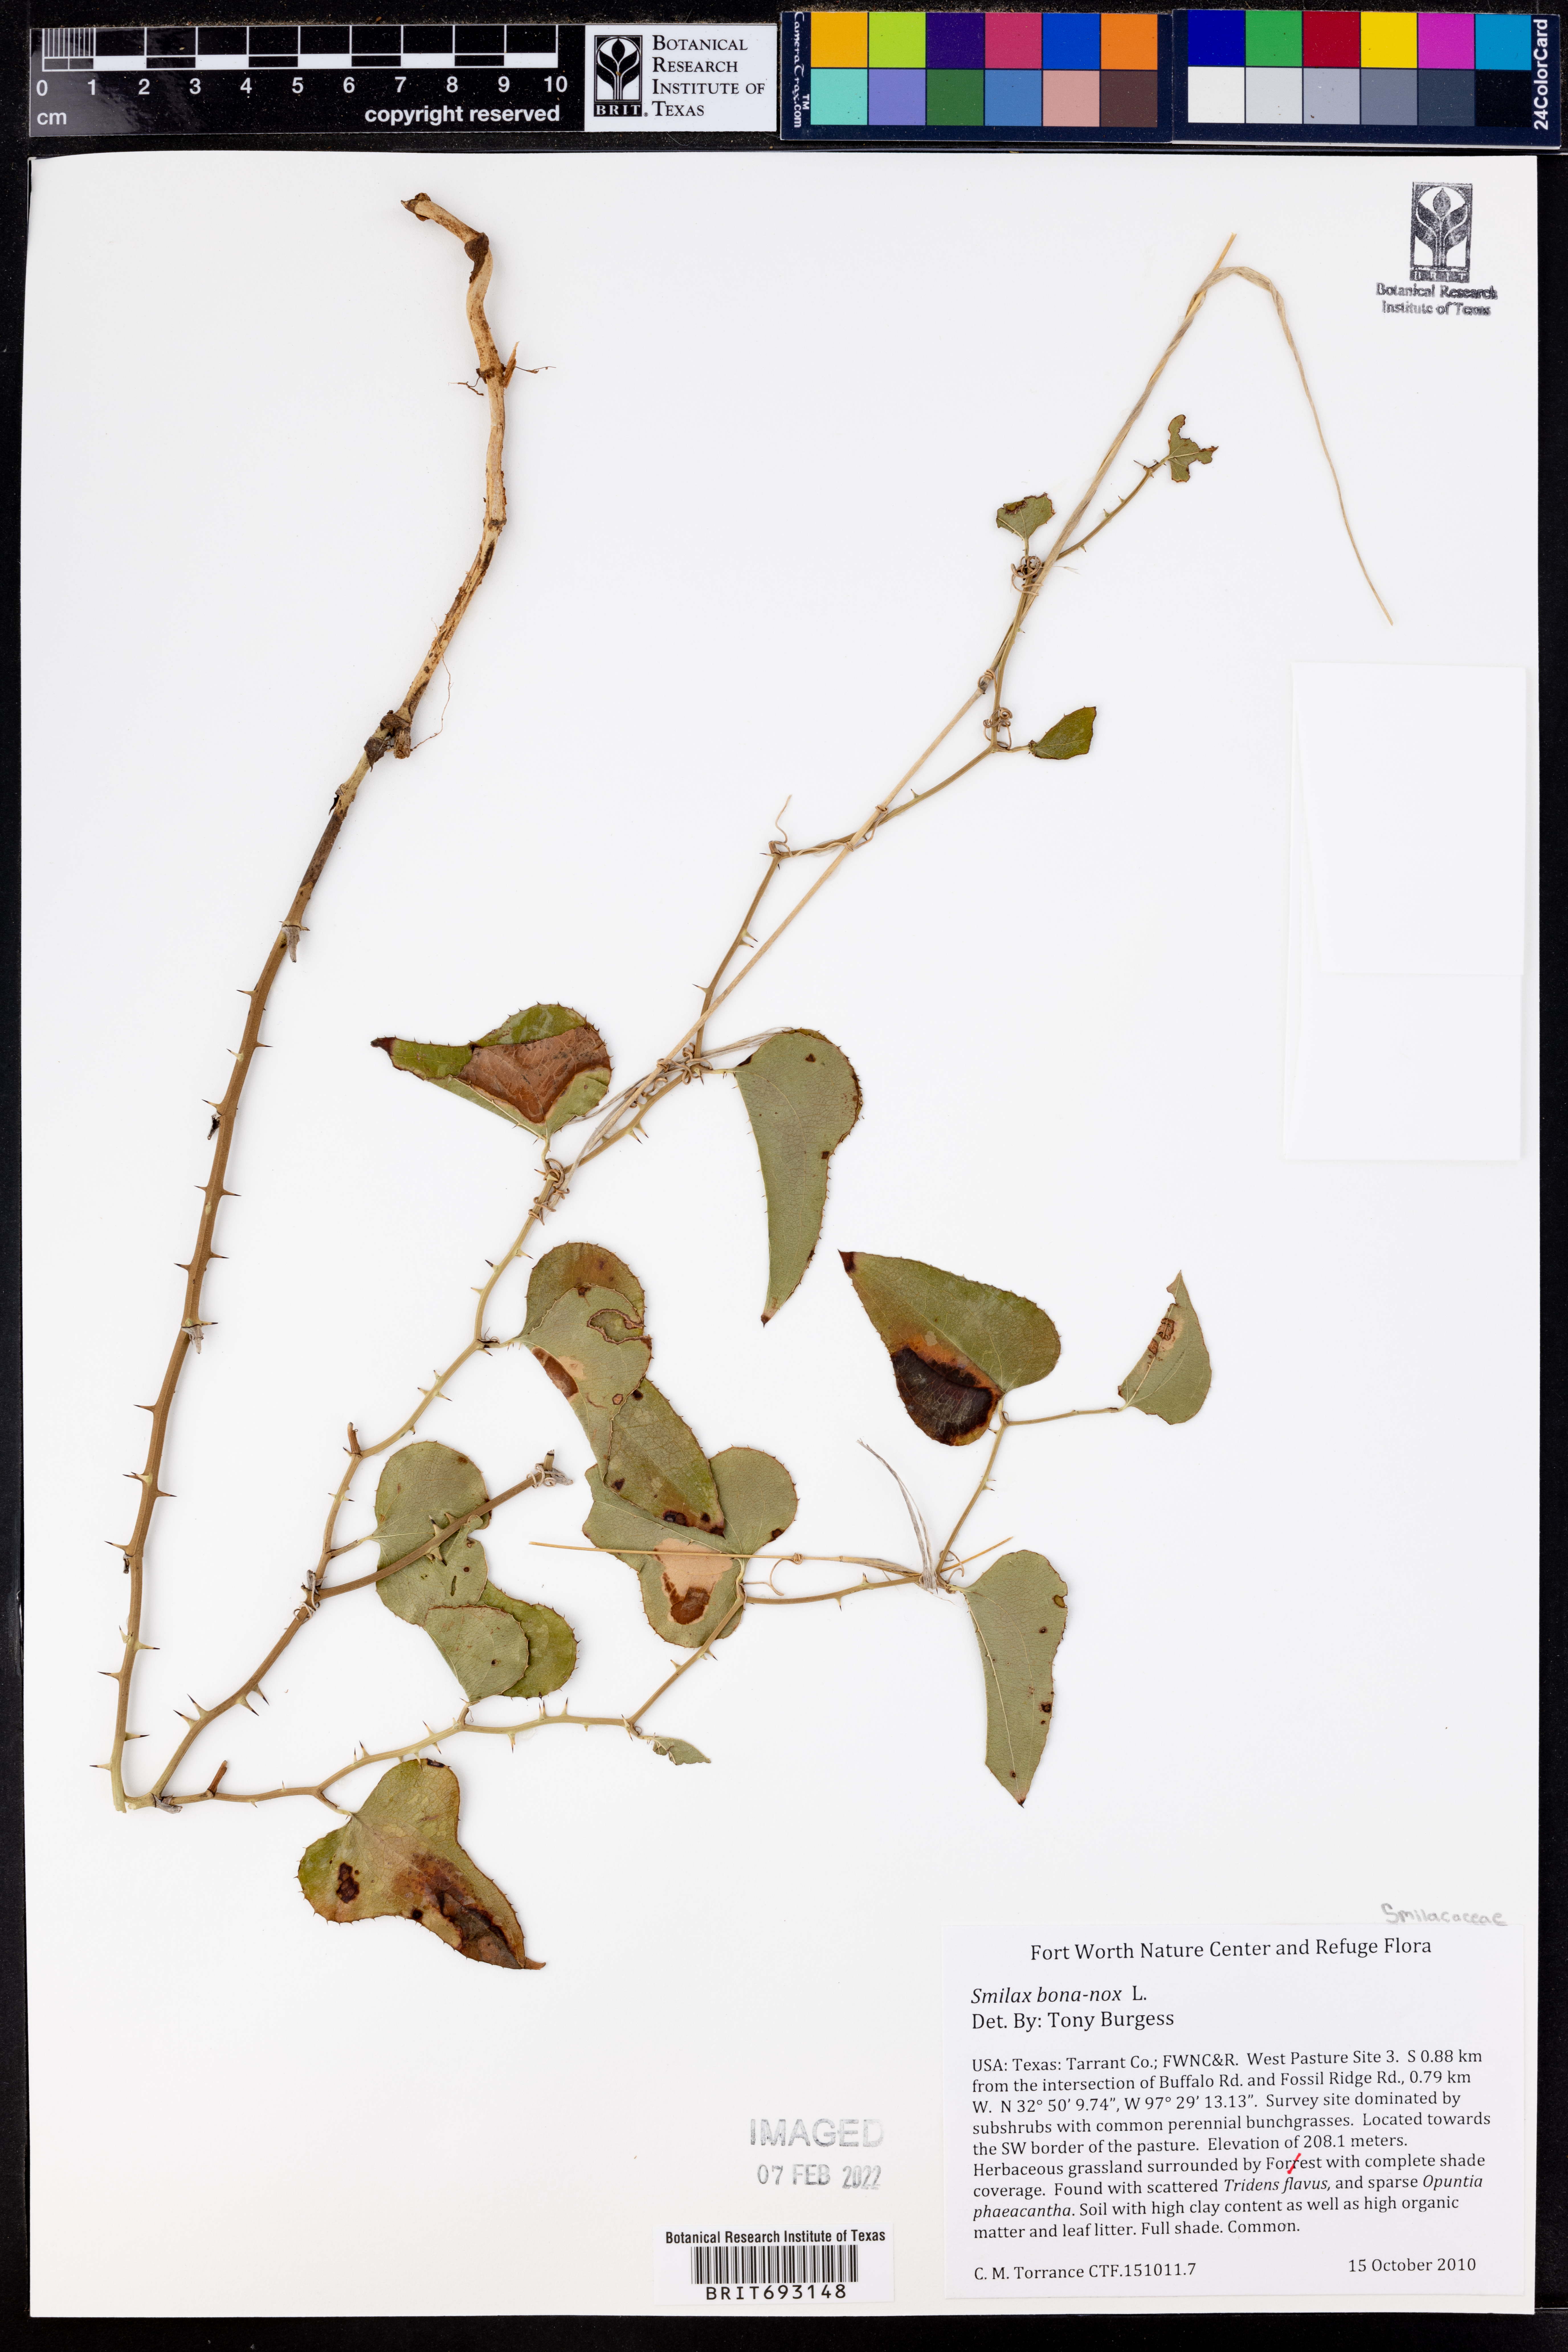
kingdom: Plantae
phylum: Tracheophyta
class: Liliopsida
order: Liliales
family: Smilacaceae
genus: Smilax
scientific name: Smilax bona-nox
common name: Catbrier
